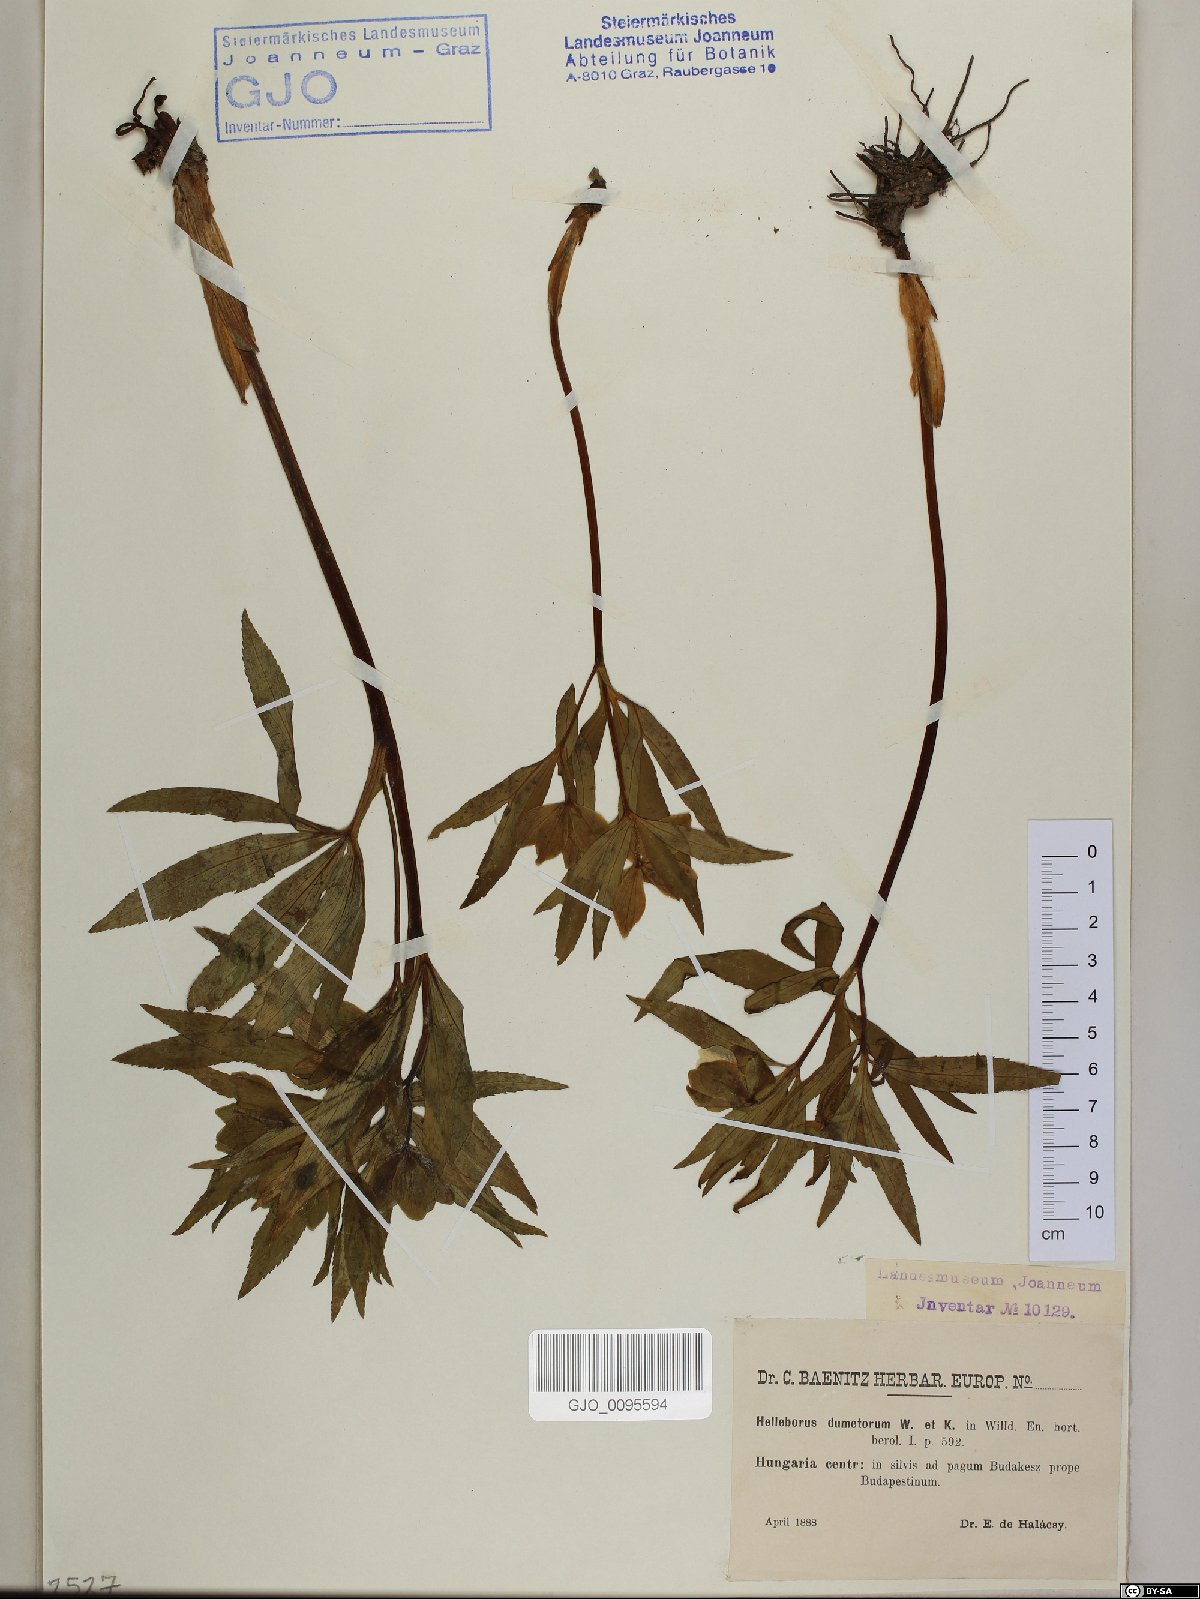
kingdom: Plantae
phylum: Tracheophyta
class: Magnoliopsida
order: Ranunculales
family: Ranunculaceae
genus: Helleborus
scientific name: Helleborus dumetorum
